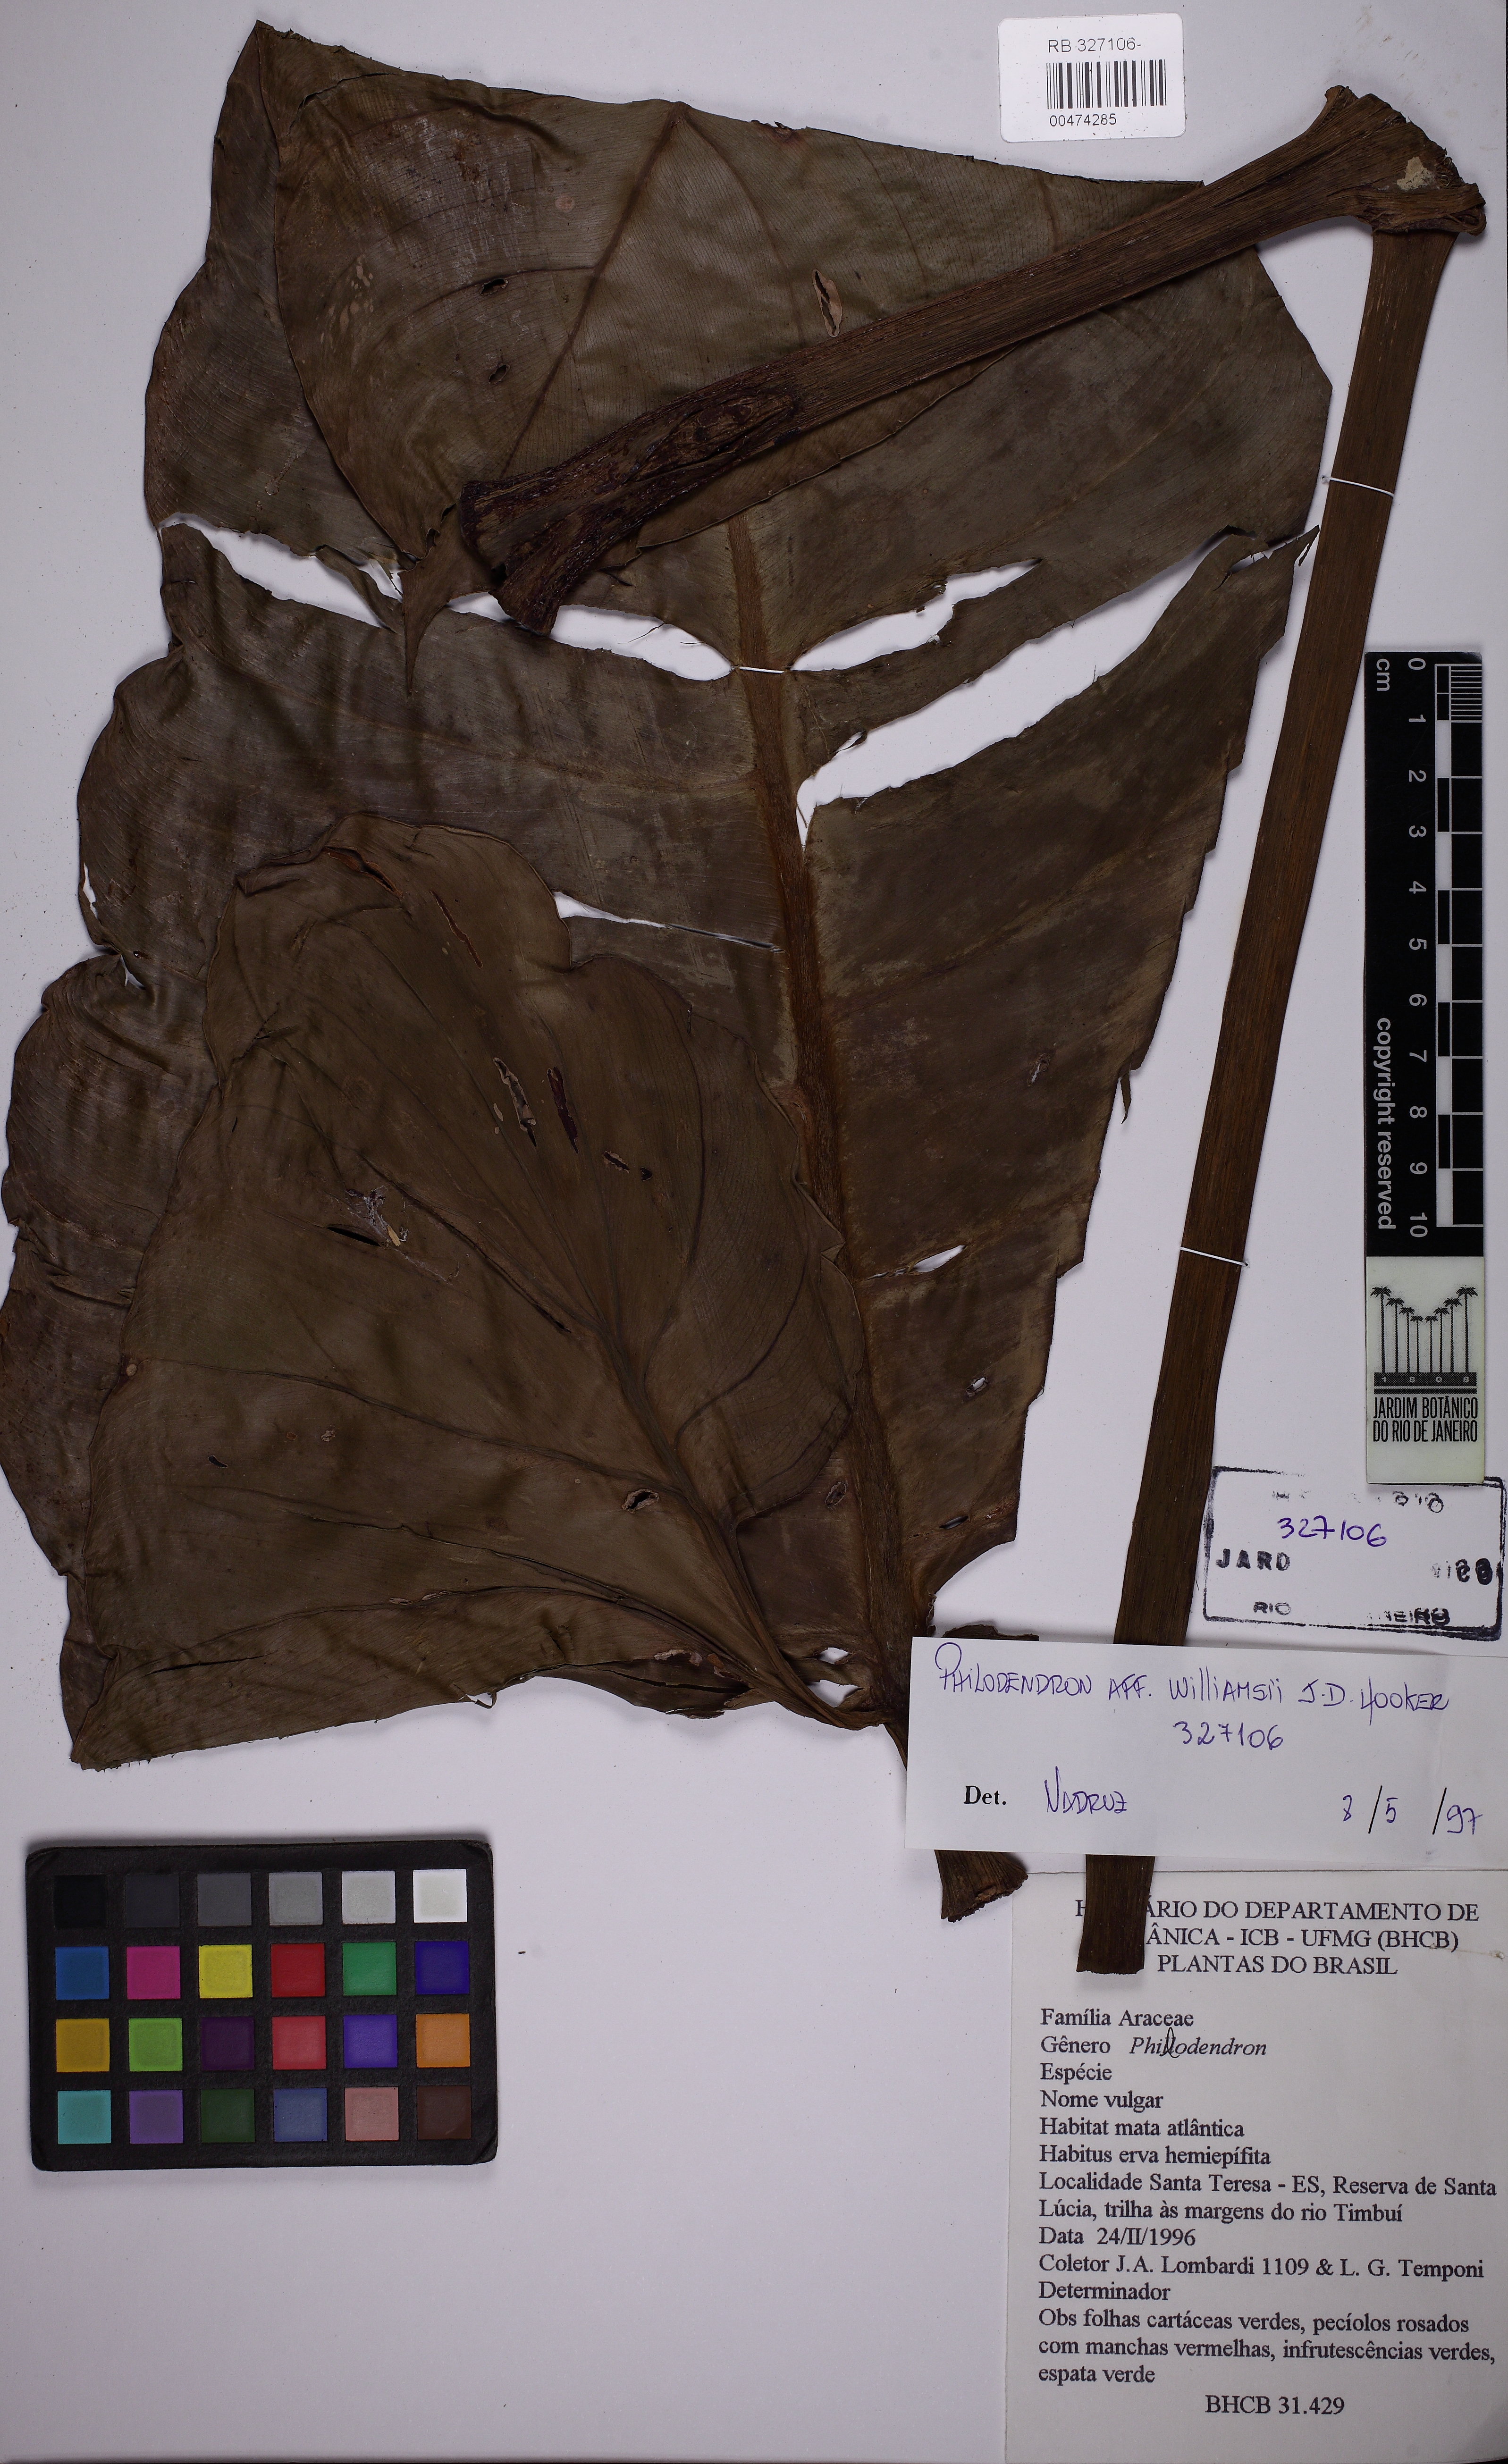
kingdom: Plantae
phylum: Tracheophyta
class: Liliopsida
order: Alismatales
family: Araceae
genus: Philodendron
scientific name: Philodendron bernardopazii
